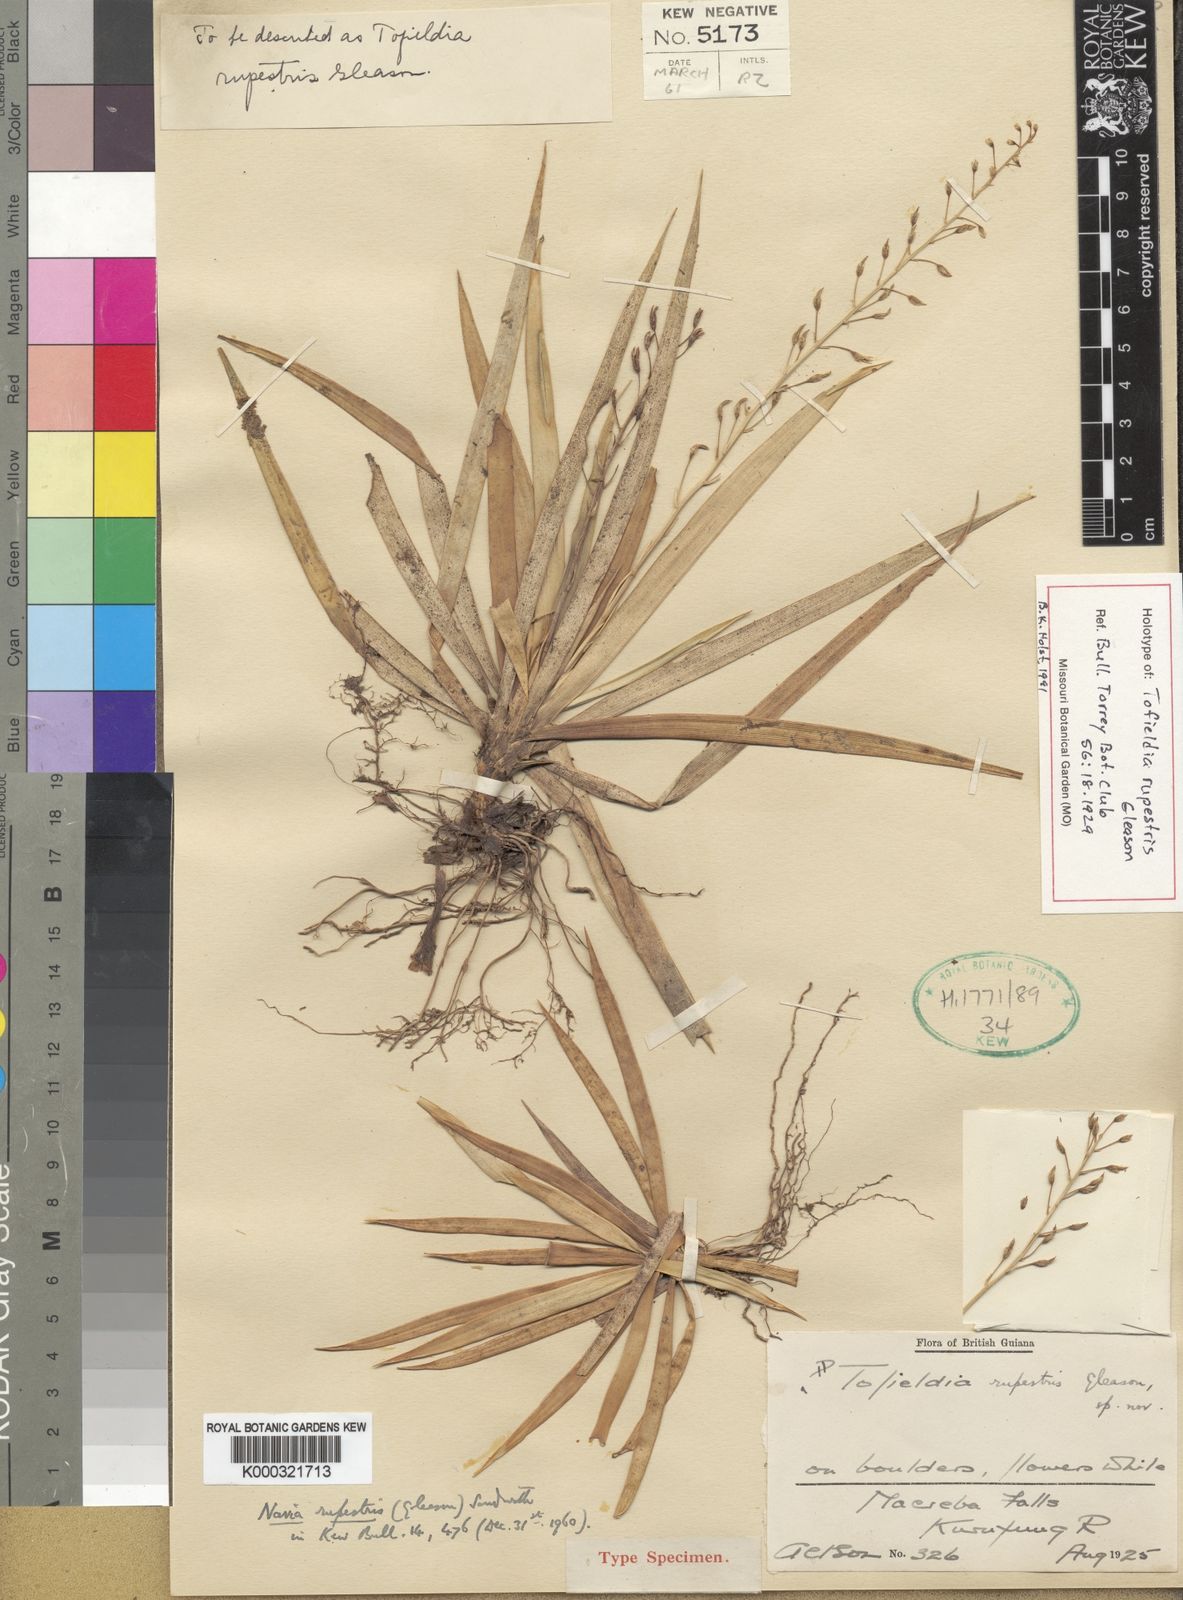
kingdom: Plantae
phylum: Tracheophyta
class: Liliopsida
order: Poales
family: Bromeliaceae
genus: Brocchinia
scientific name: Brocchinia rupestris
